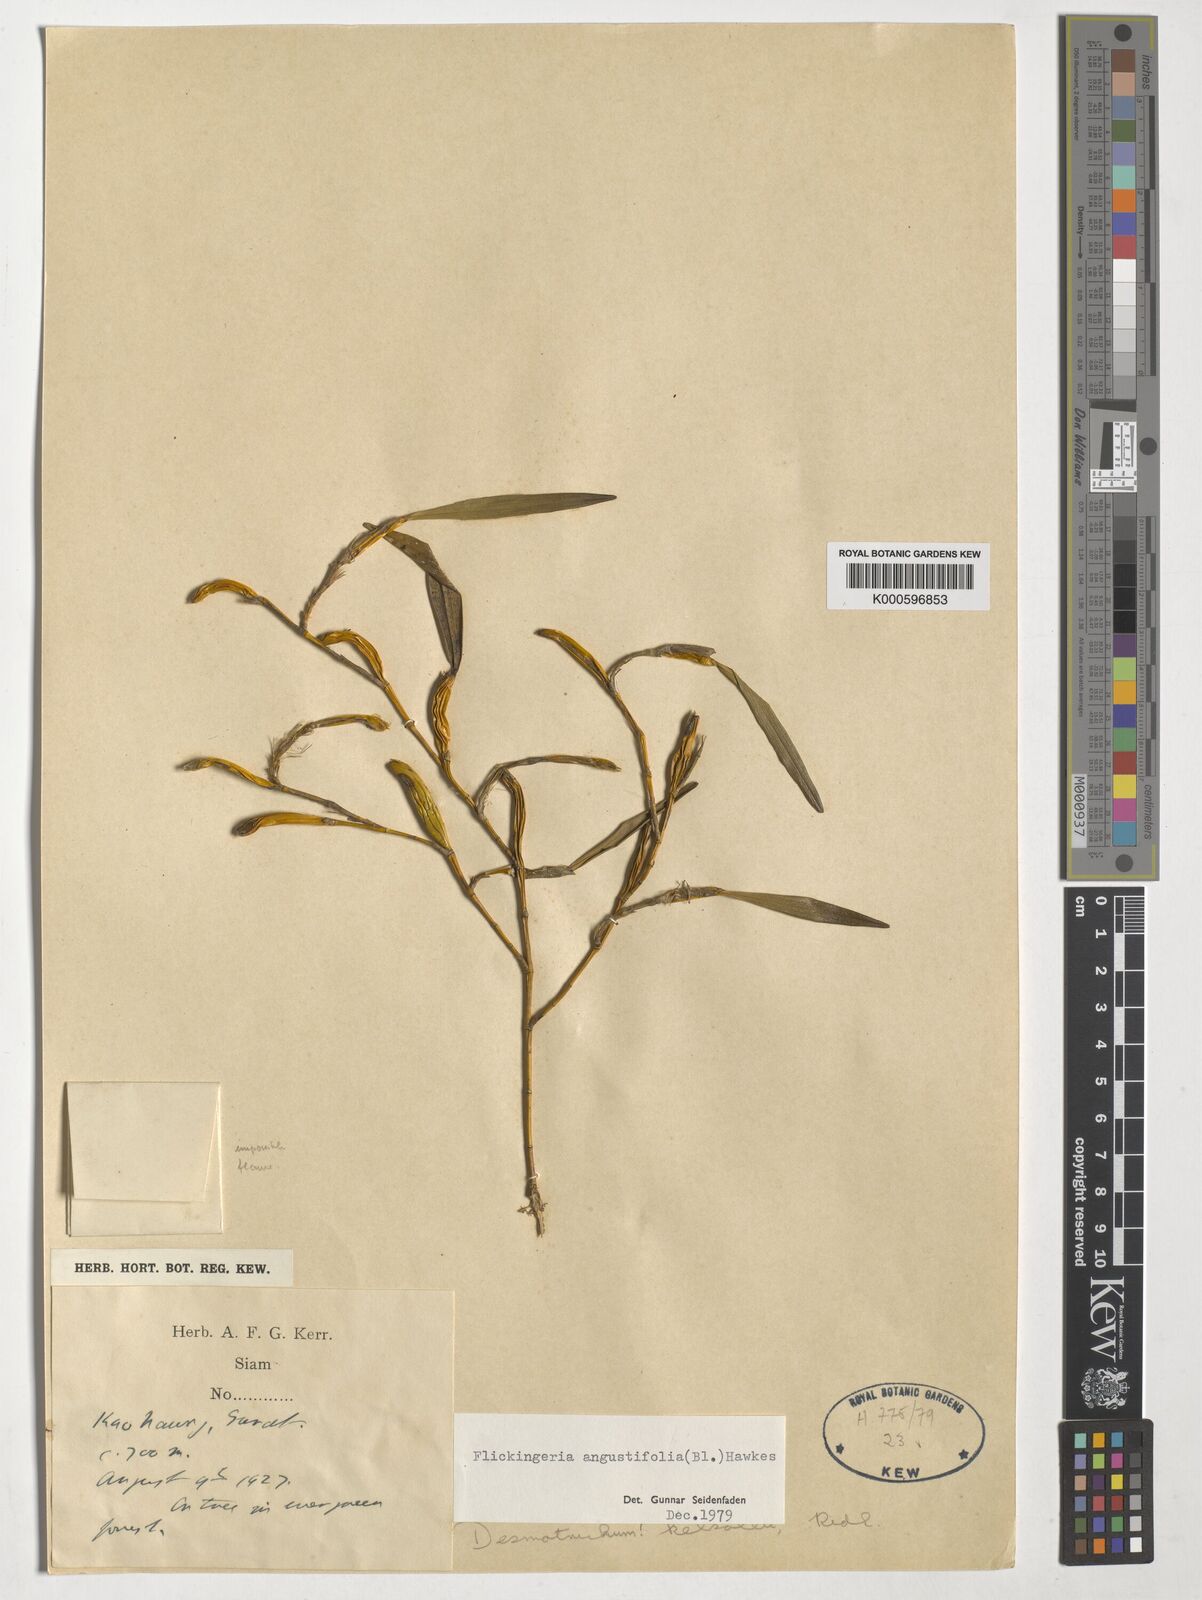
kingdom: Plantae
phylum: Tracheophyta
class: Liliopsida
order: Asparagales
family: Orchidaceae
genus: Dendrobium
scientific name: Dendrobium angustifolium
